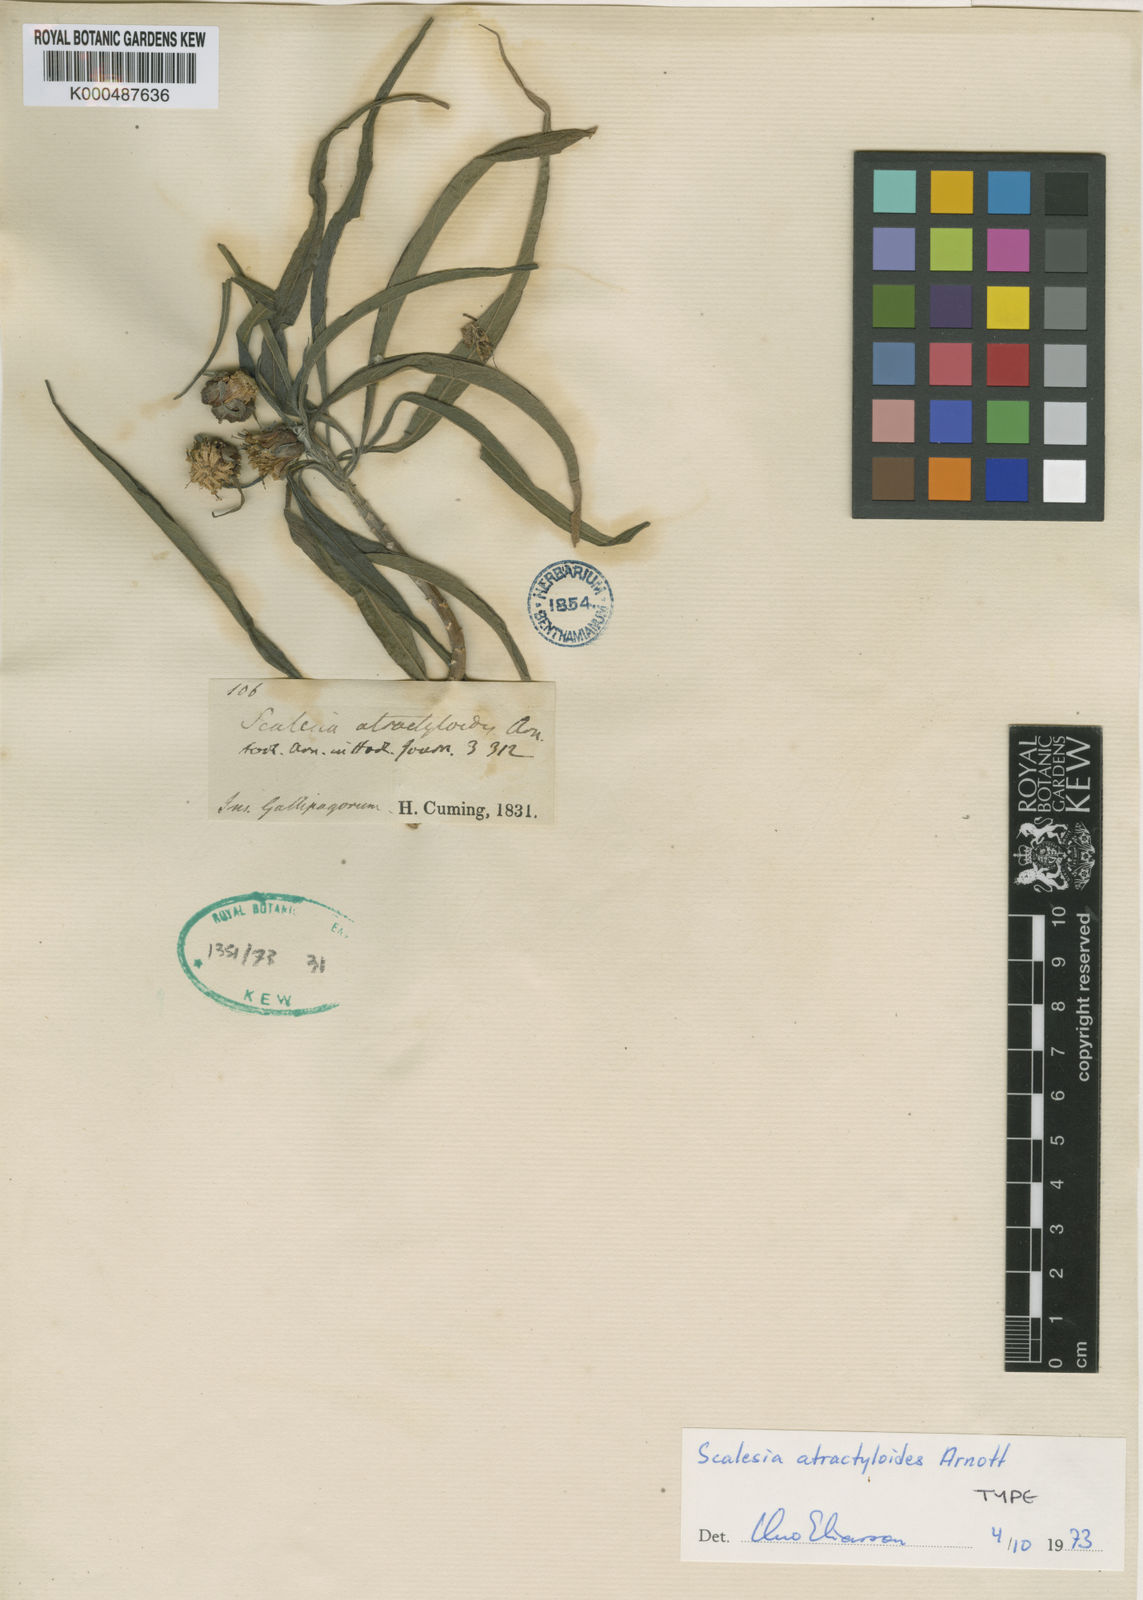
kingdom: Plantae
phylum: Tracheophyta
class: Magnoliopsida
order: Asterales
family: Asteraceae
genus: Scalesia
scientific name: Scalesia atractyloides
